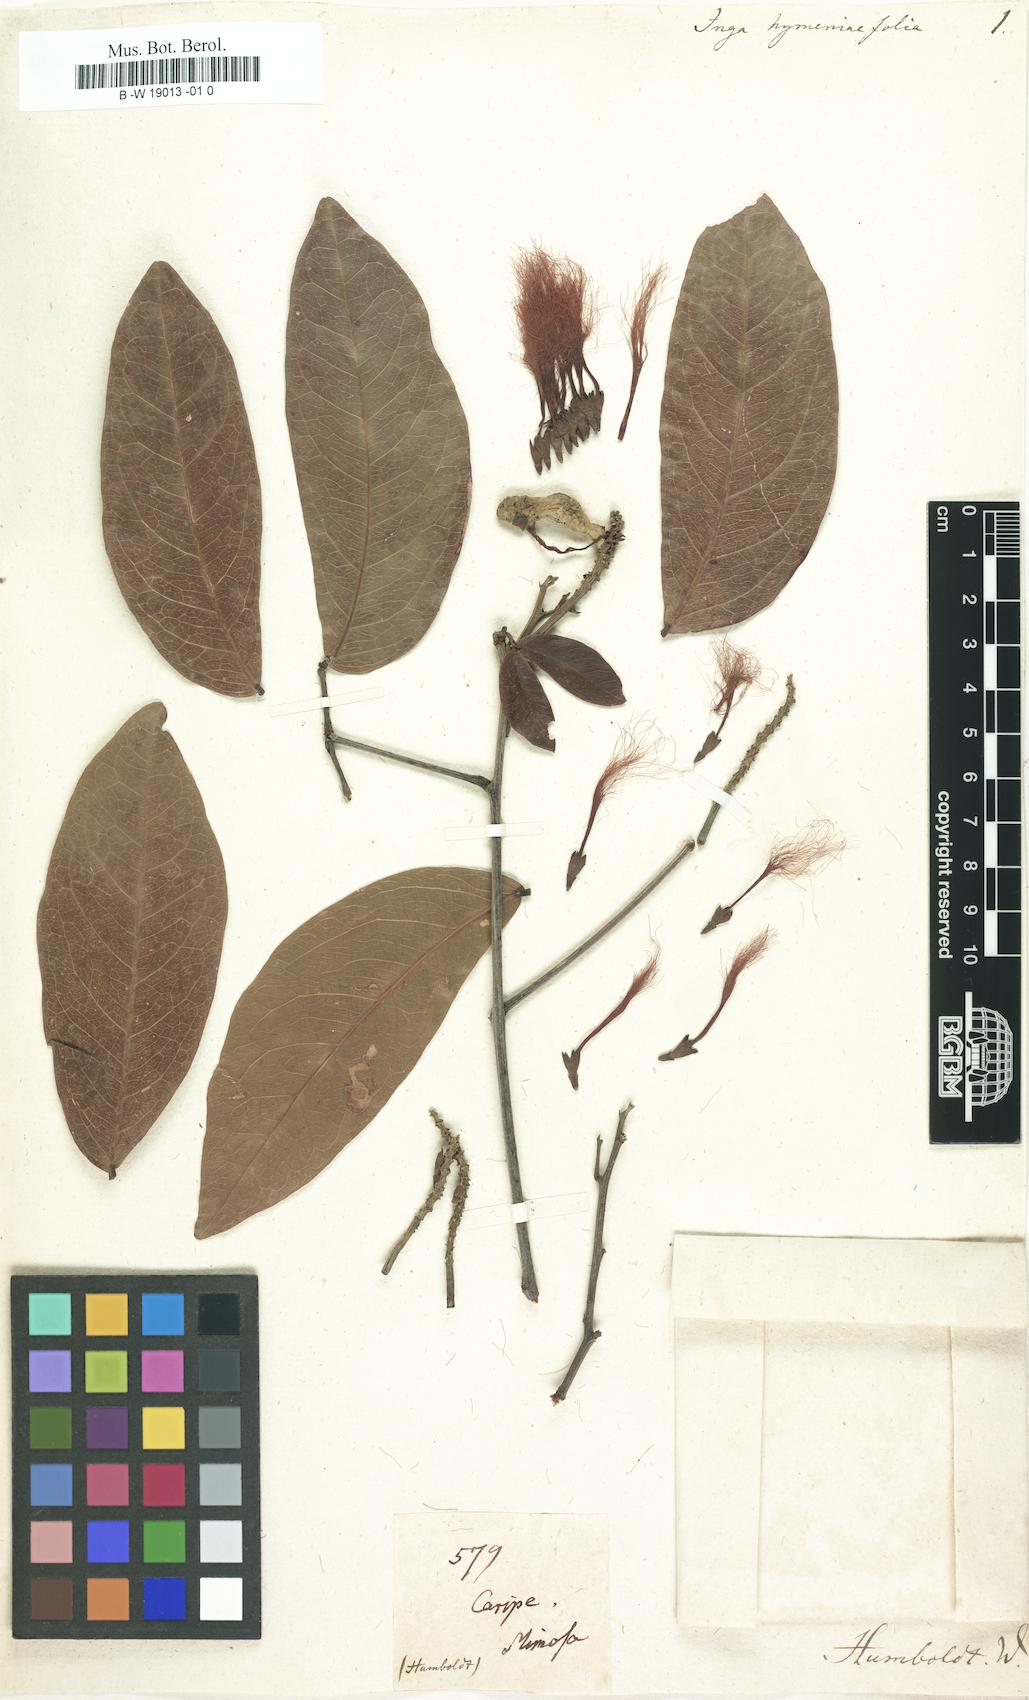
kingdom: Plantae
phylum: Tracheophyta
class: Magnoliopsida
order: Fabales
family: Fabaceae
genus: Pithecellobium
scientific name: Pithecellobium hymenaeifolium
